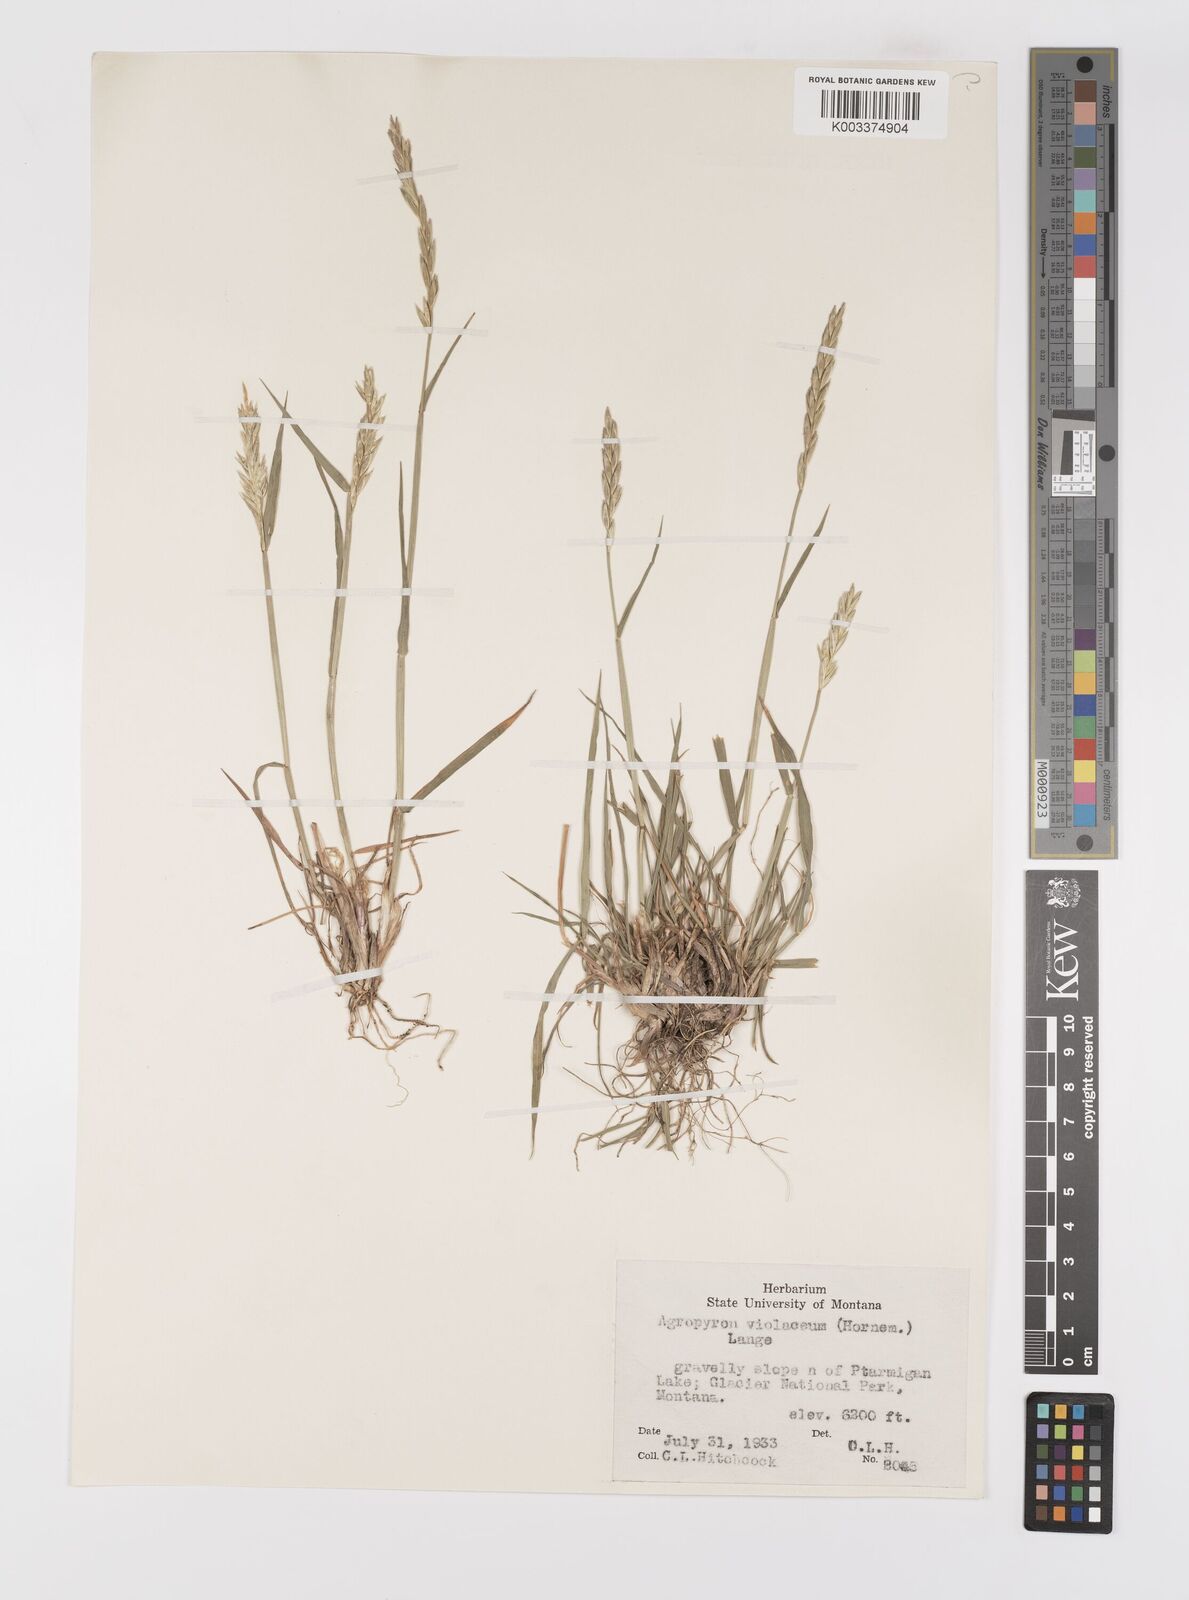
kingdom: Plantae
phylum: Tracheophyta
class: Liliopsida
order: Poales
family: Poaceae
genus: Elymus
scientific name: Elymus violaceus
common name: Arctic wheatgrass
